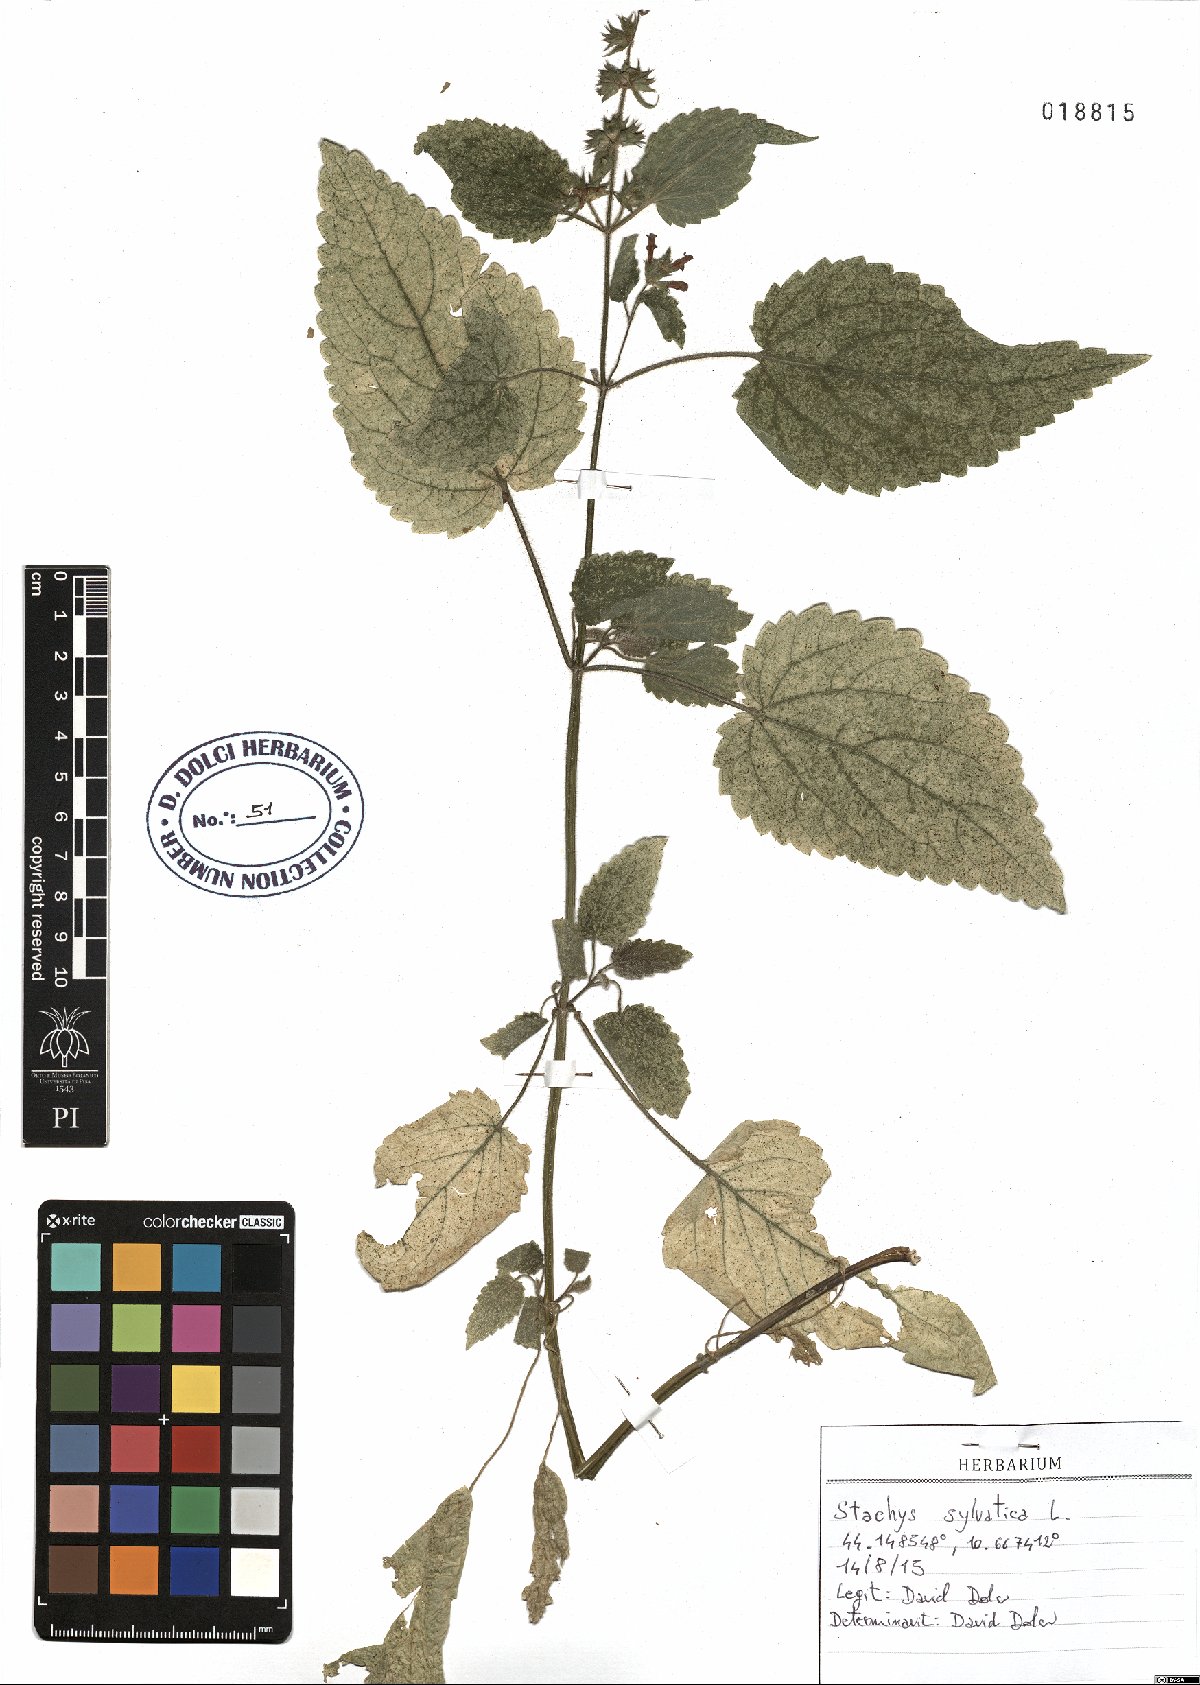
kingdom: Plantae
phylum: Tracheophyta
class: Magnoliopsida
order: Lamiales
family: Lamiaceae
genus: Stachys
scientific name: Stachys sylvatica
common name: Hedge woundwort
